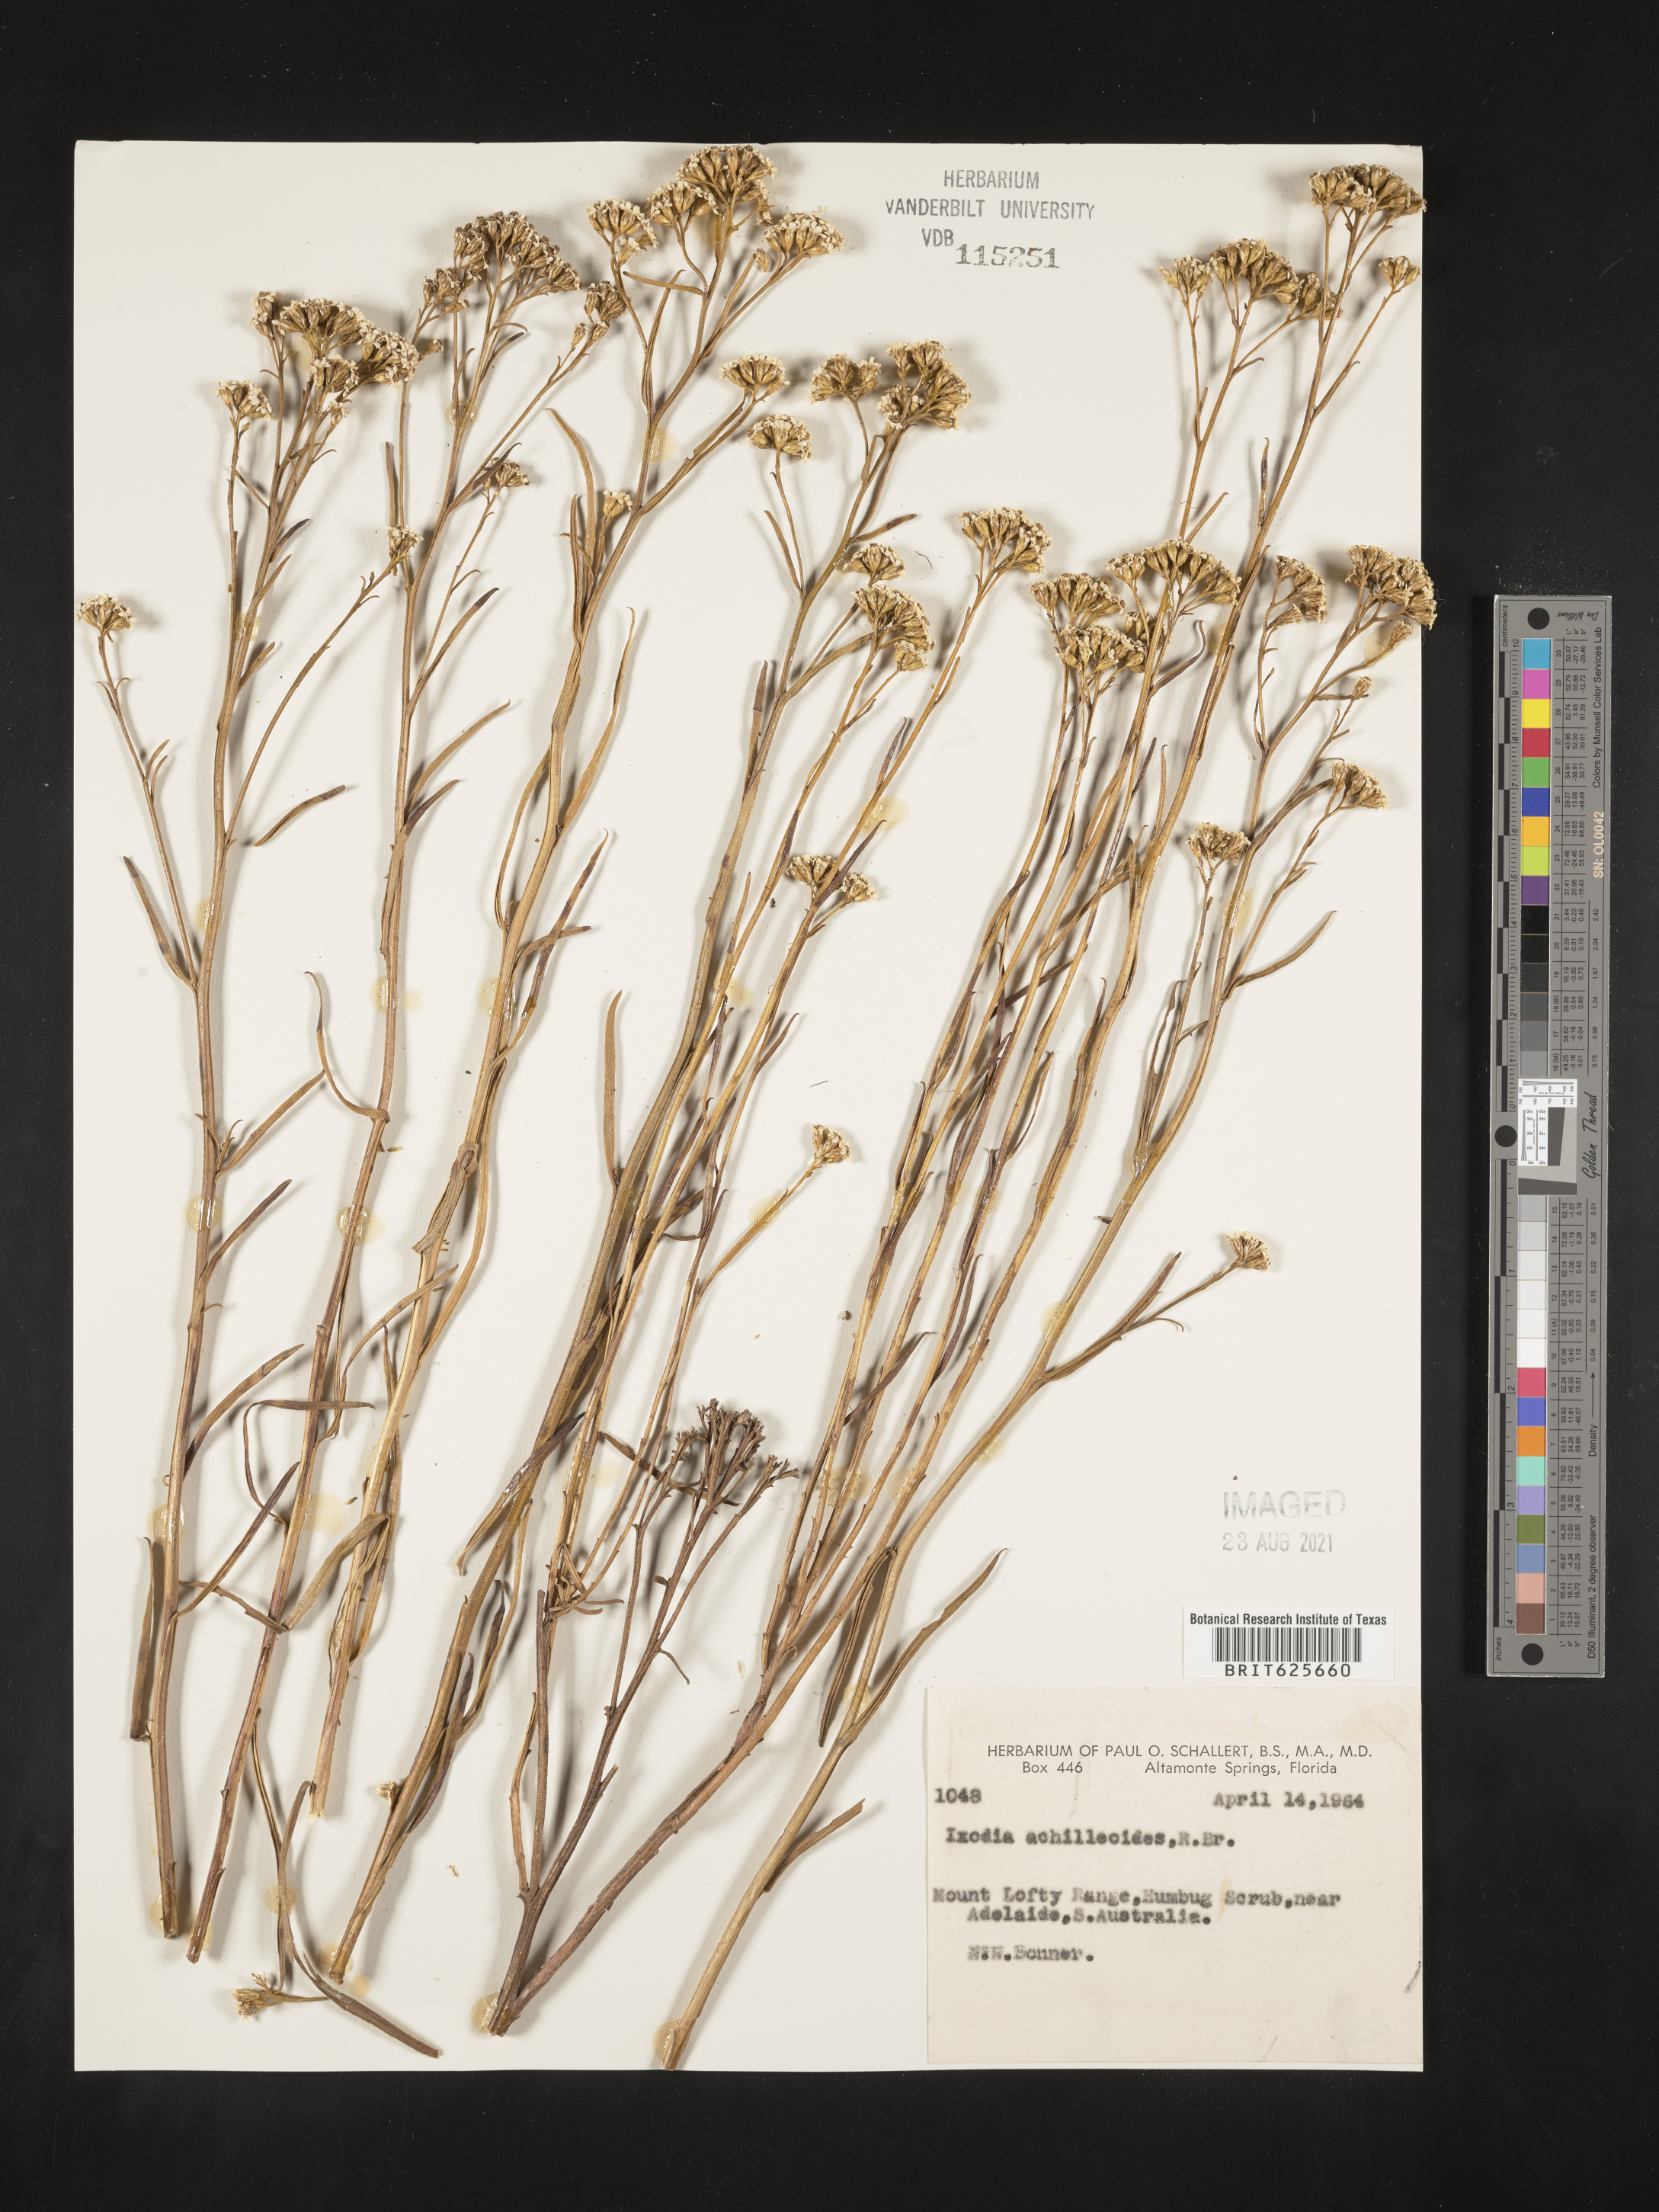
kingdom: Plantae
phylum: Tracheophyta
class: Magnoliopsida
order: Asterales
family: Asteraceae
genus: Ixodia
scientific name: Ixodia achillaeoides
